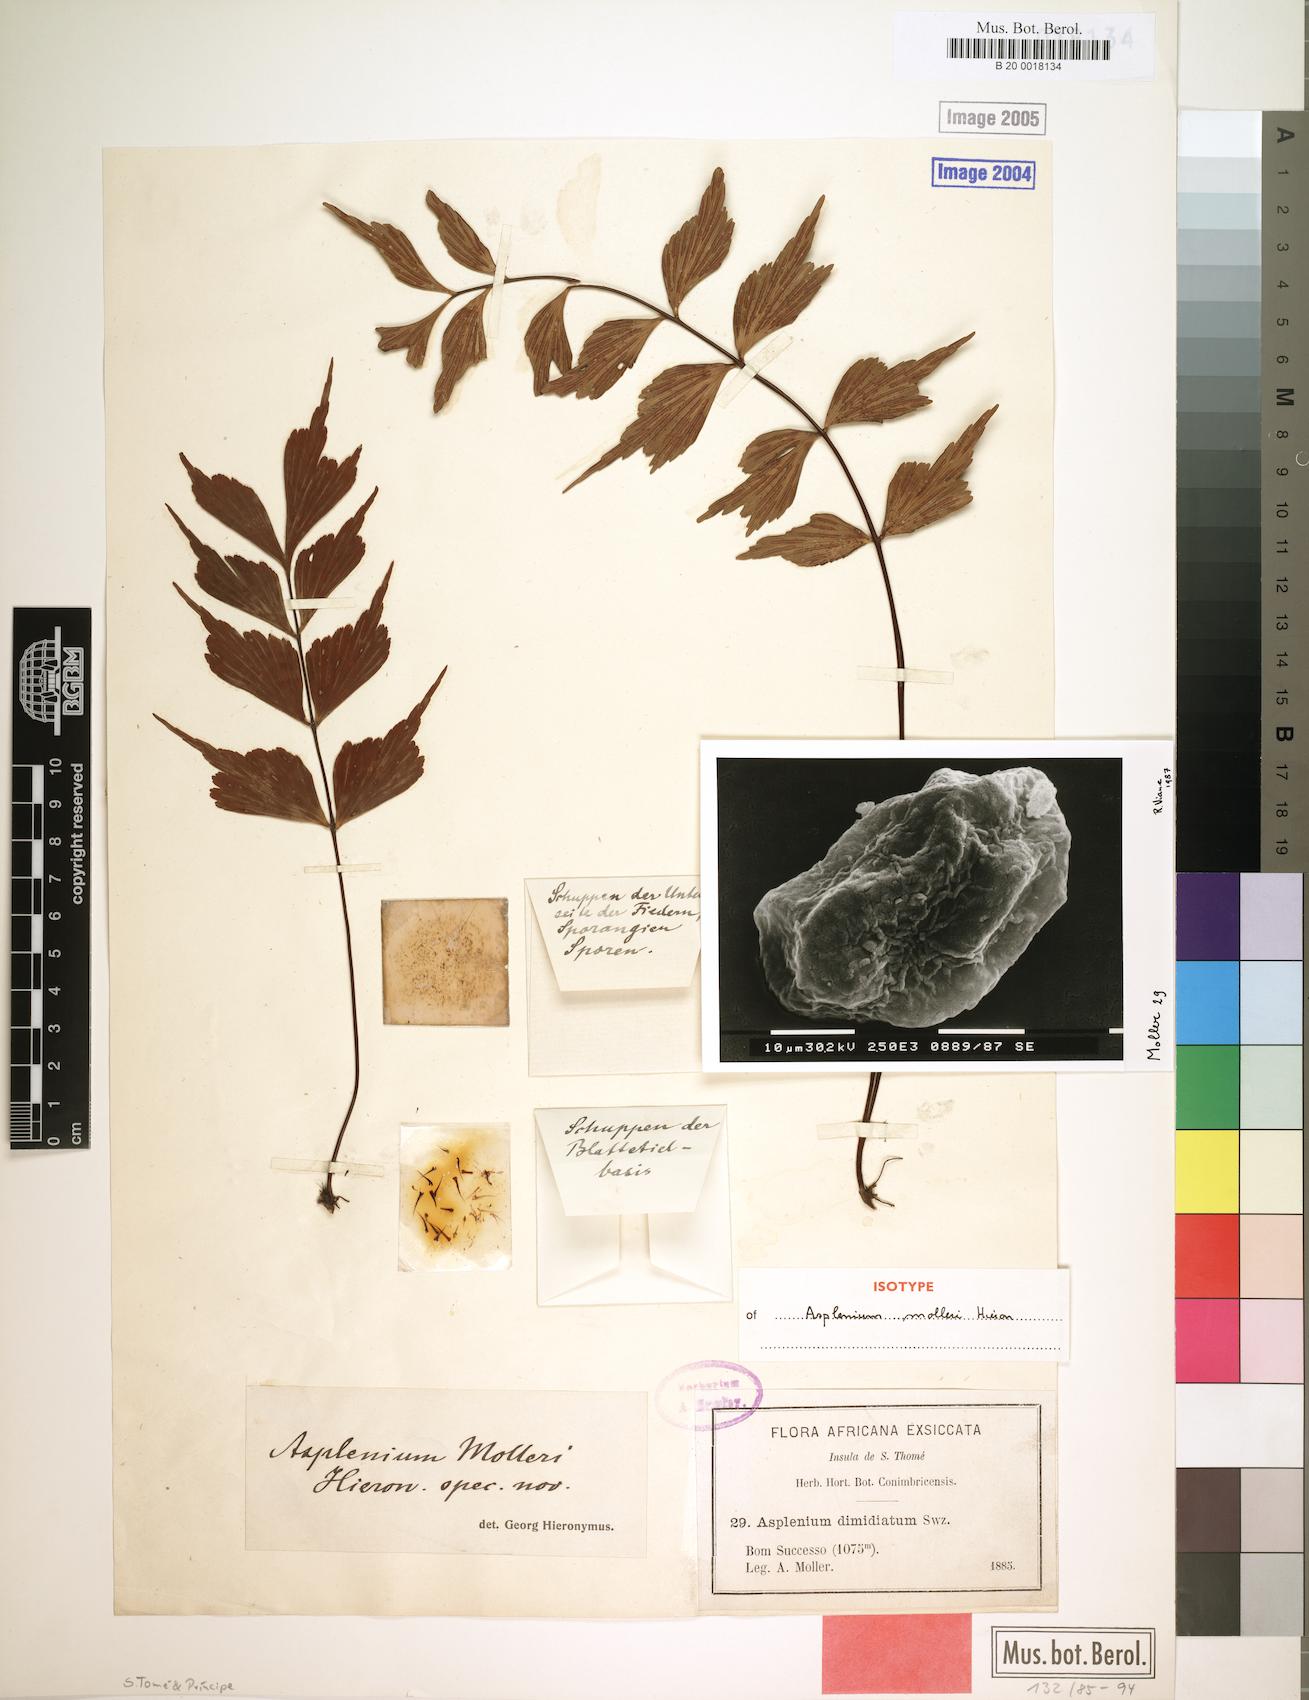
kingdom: Plantae
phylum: Tracheophyta
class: Polypodiopsida
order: Polypodiales
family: Aspleniaceae
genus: Asplenium
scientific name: Asplenium megalura
